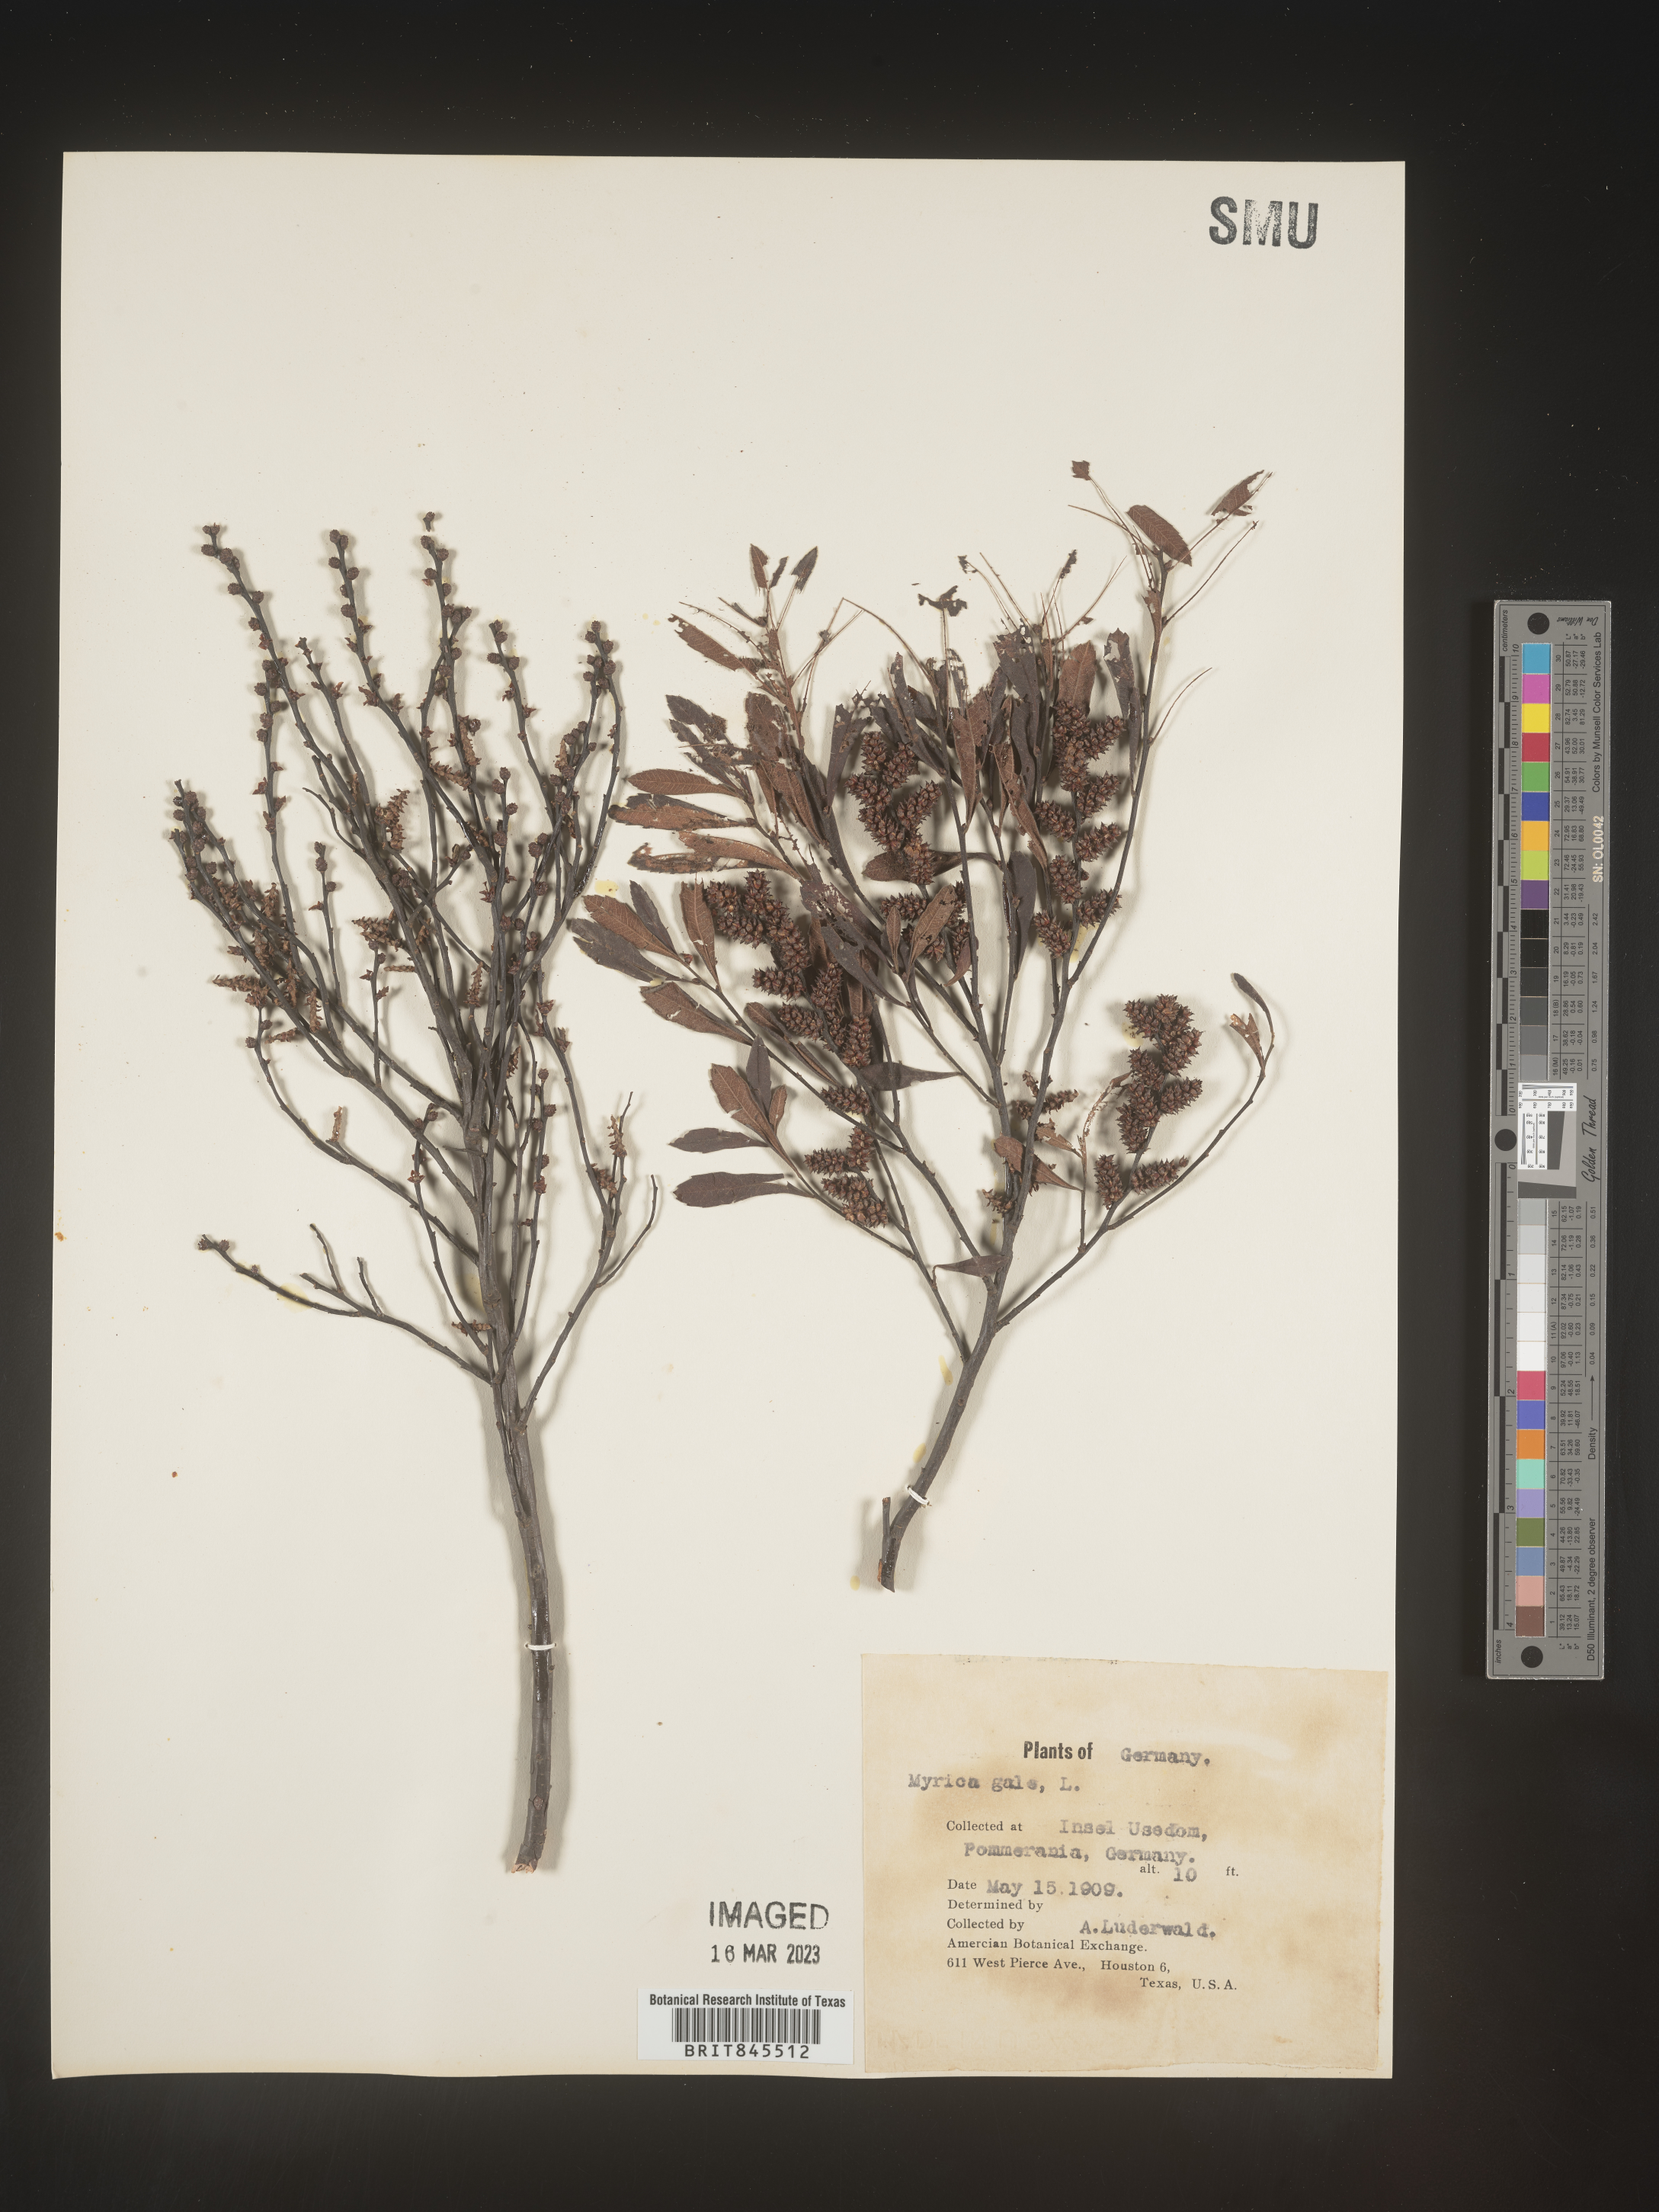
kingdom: Plantae
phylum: Tracheophyta
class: Magnoliopsida
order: Fagales
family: Myricaceae
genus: Myrica
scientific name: Myrica
